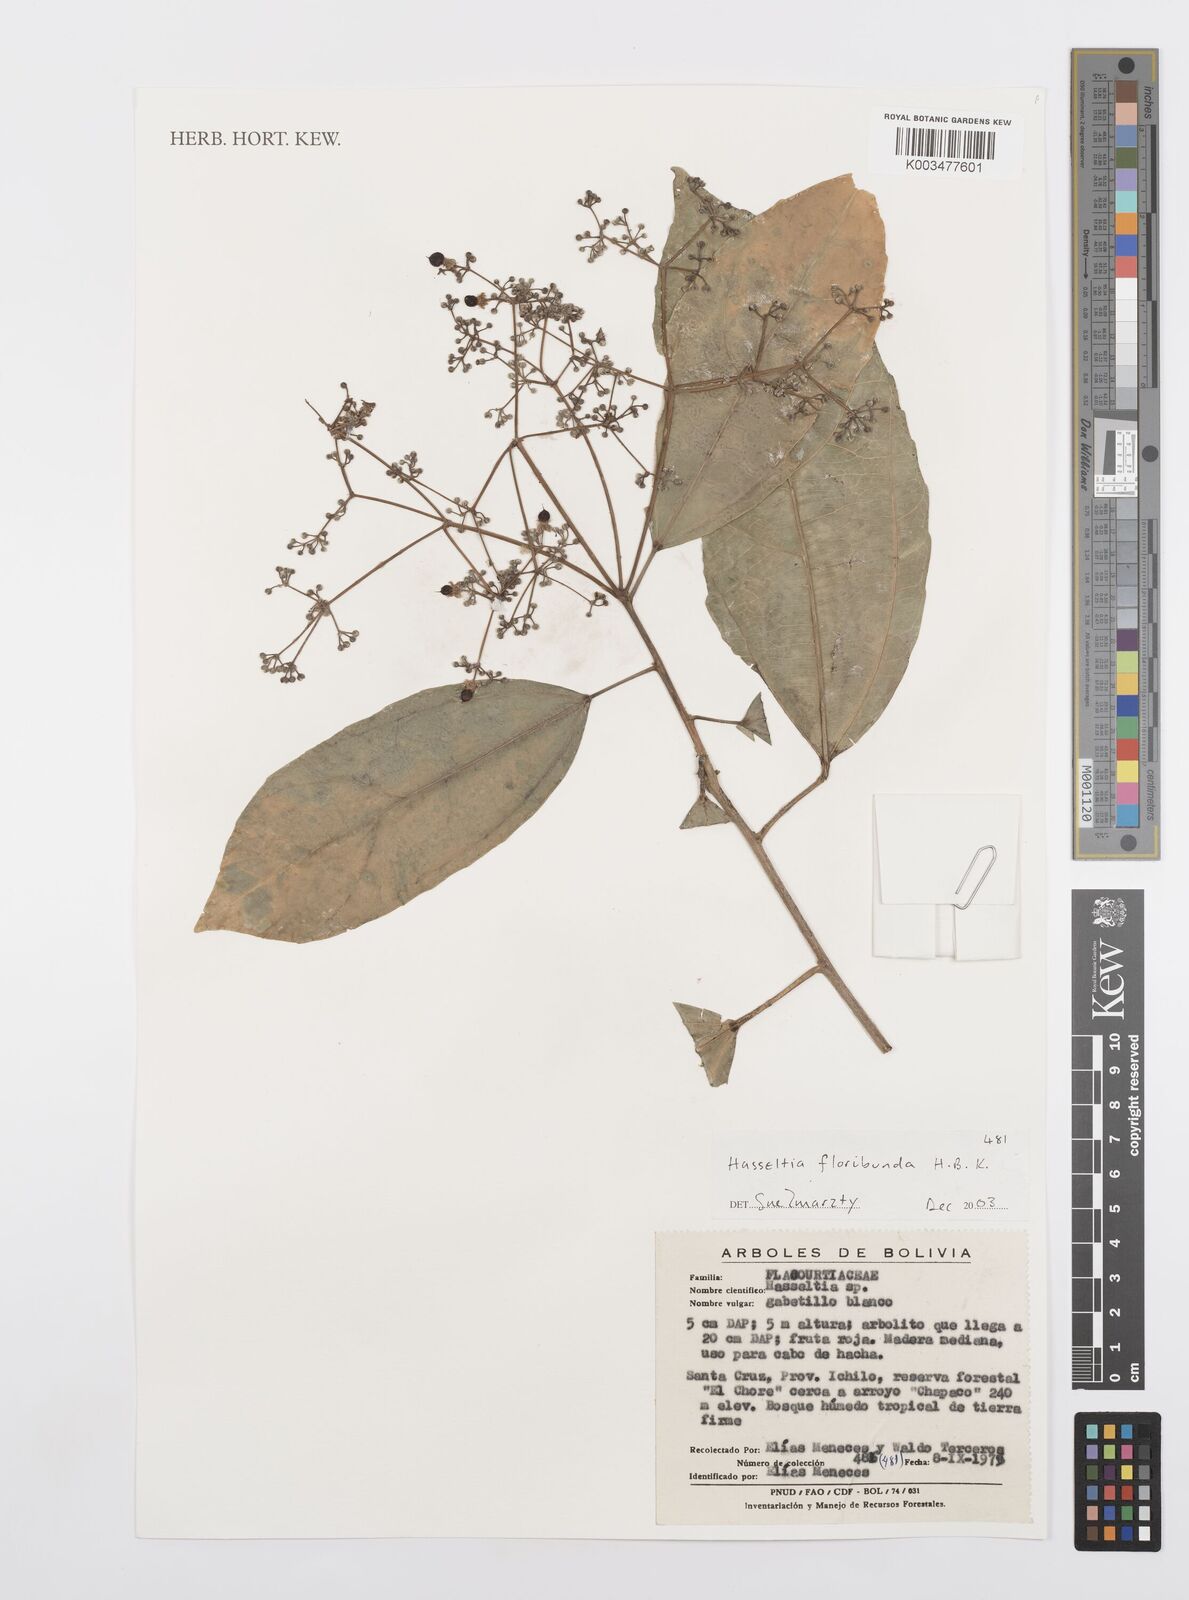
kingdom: Plantae
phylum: Tracheophyta
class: Magnoliopsida
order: Malpighiales
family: Salicaceae
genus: Hasseltia
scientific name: Hasseltia floribunda
